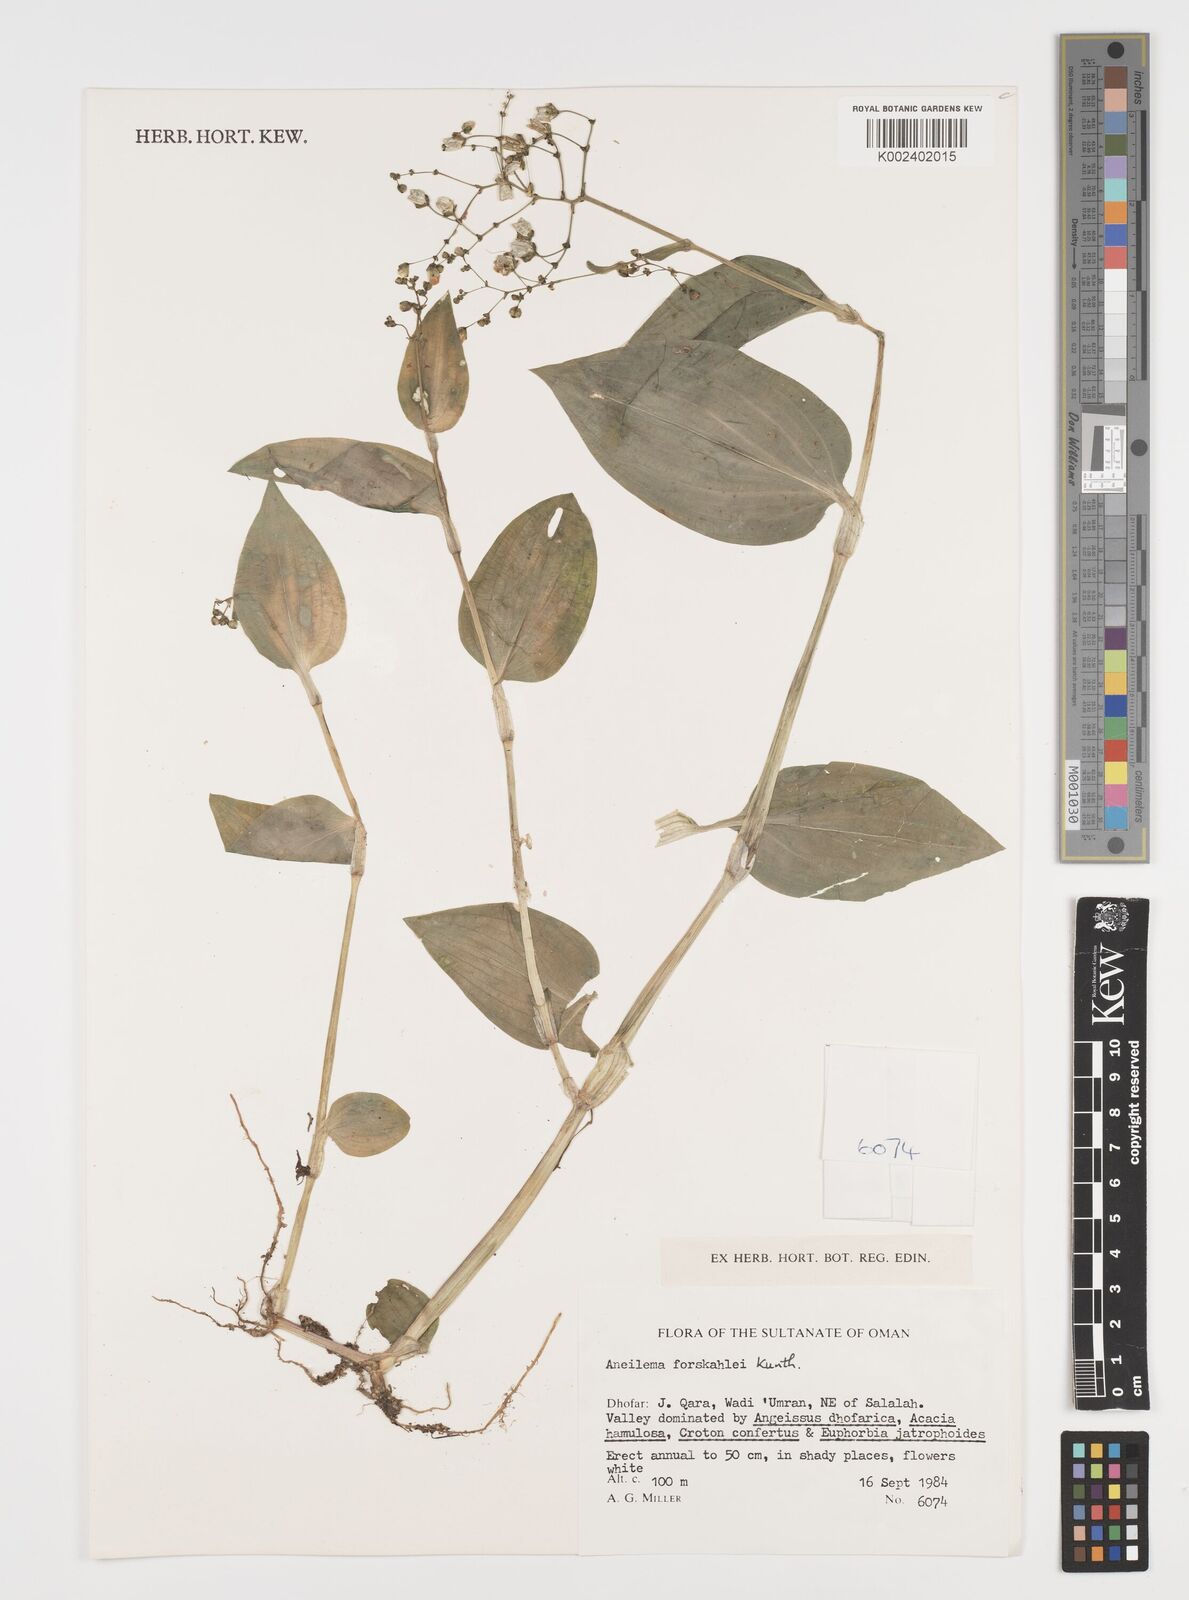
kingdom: Plantae
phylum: Tracheophyta
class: Liliopsida
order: Commelinales
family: Commelinaceae
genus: Aneilema
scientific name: Aneilema forskalii
